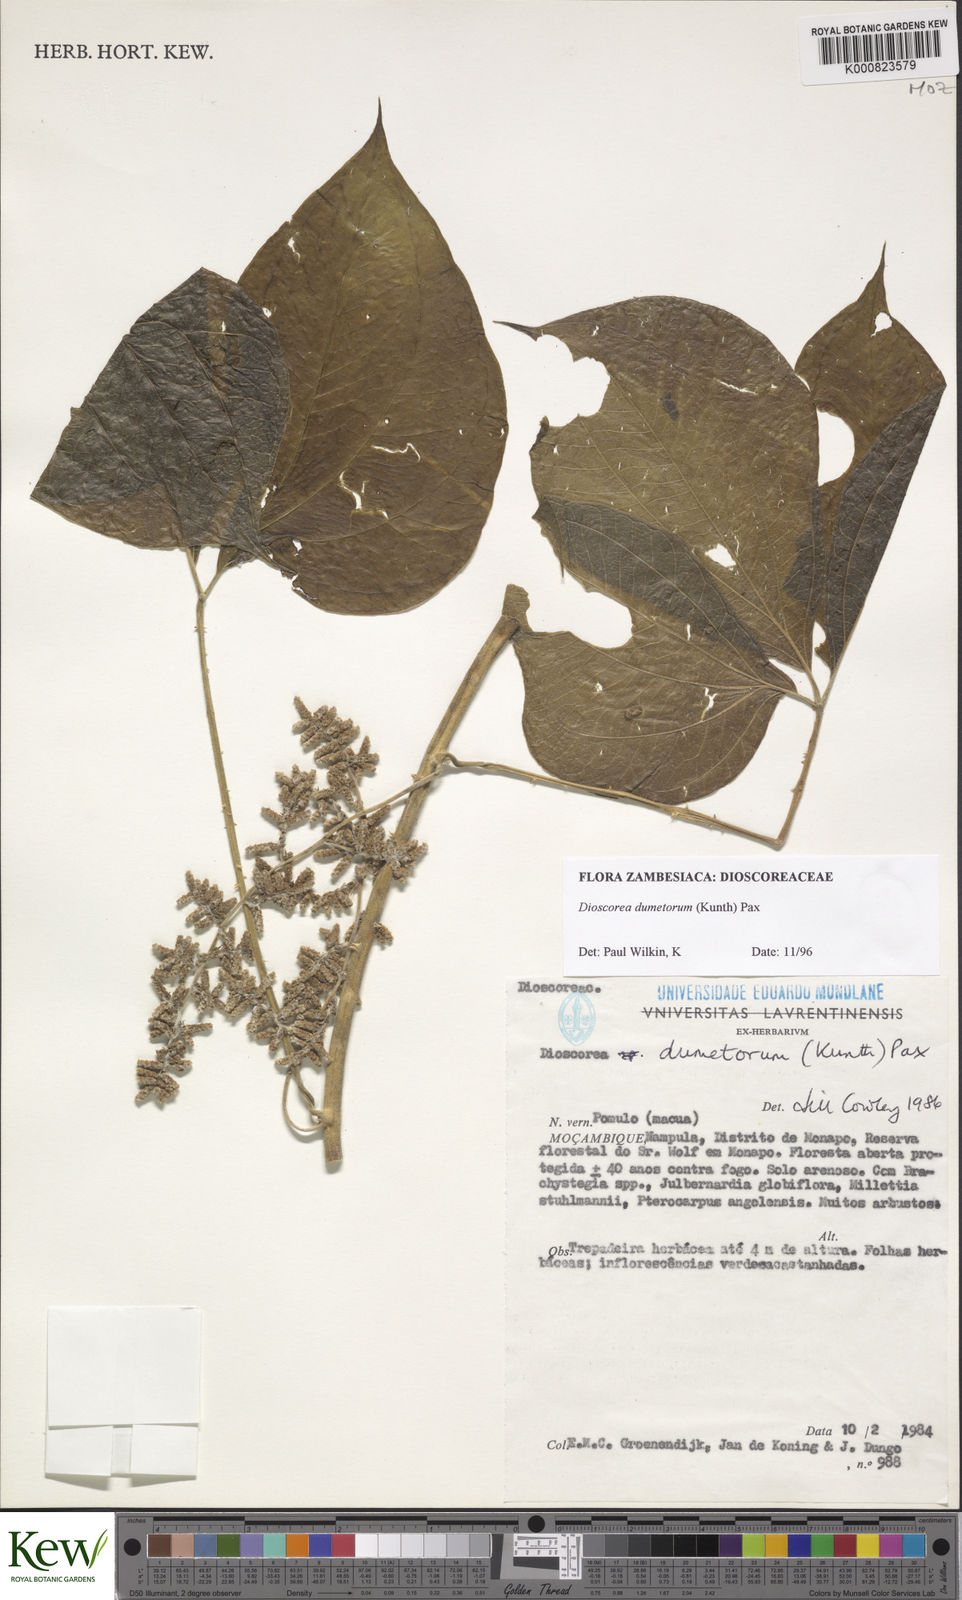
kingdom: Plantae
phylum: Tracheophyta
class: Liliopsida
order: Dioscoreales
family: Dioscoreaceae
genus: Dioscorea
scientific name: Dioscorea dumetorum
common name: African bitter yam
